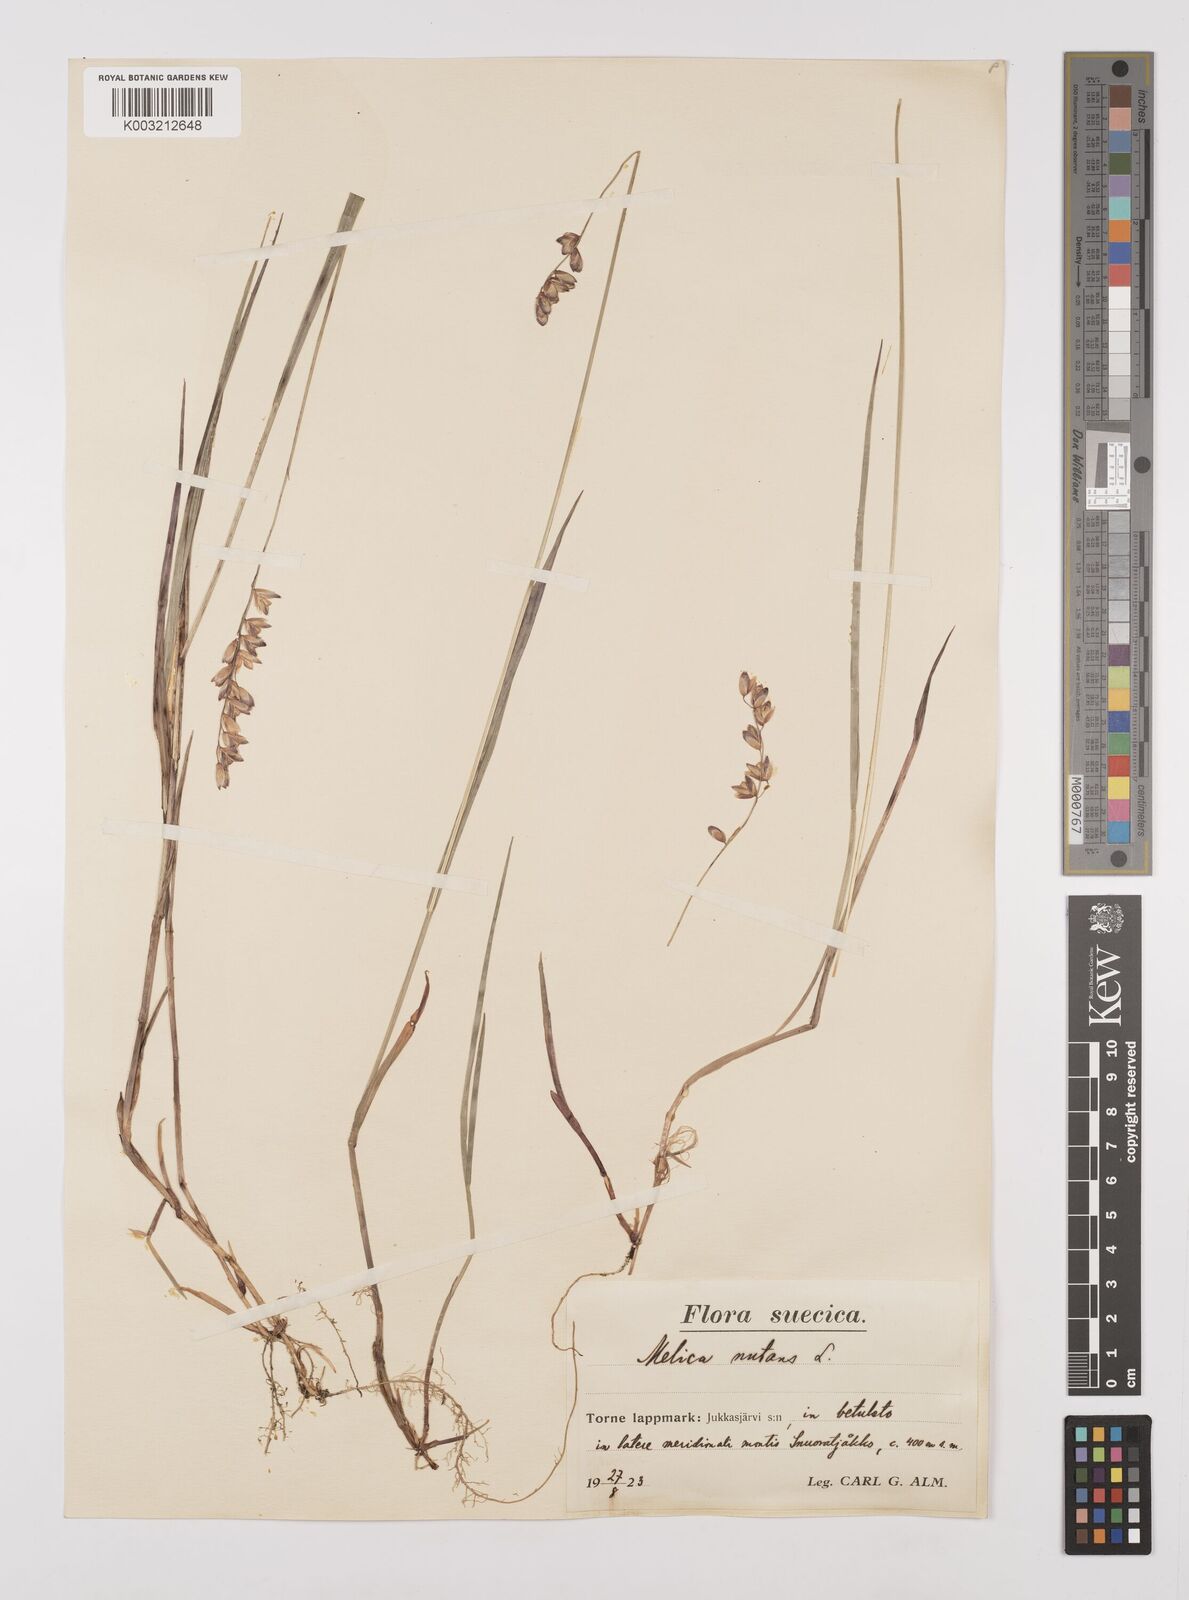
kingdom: Plantae
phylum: Tracheophyta
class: Liliopsida
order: Poales
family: Poaceae
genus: Melica
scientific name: Melica
